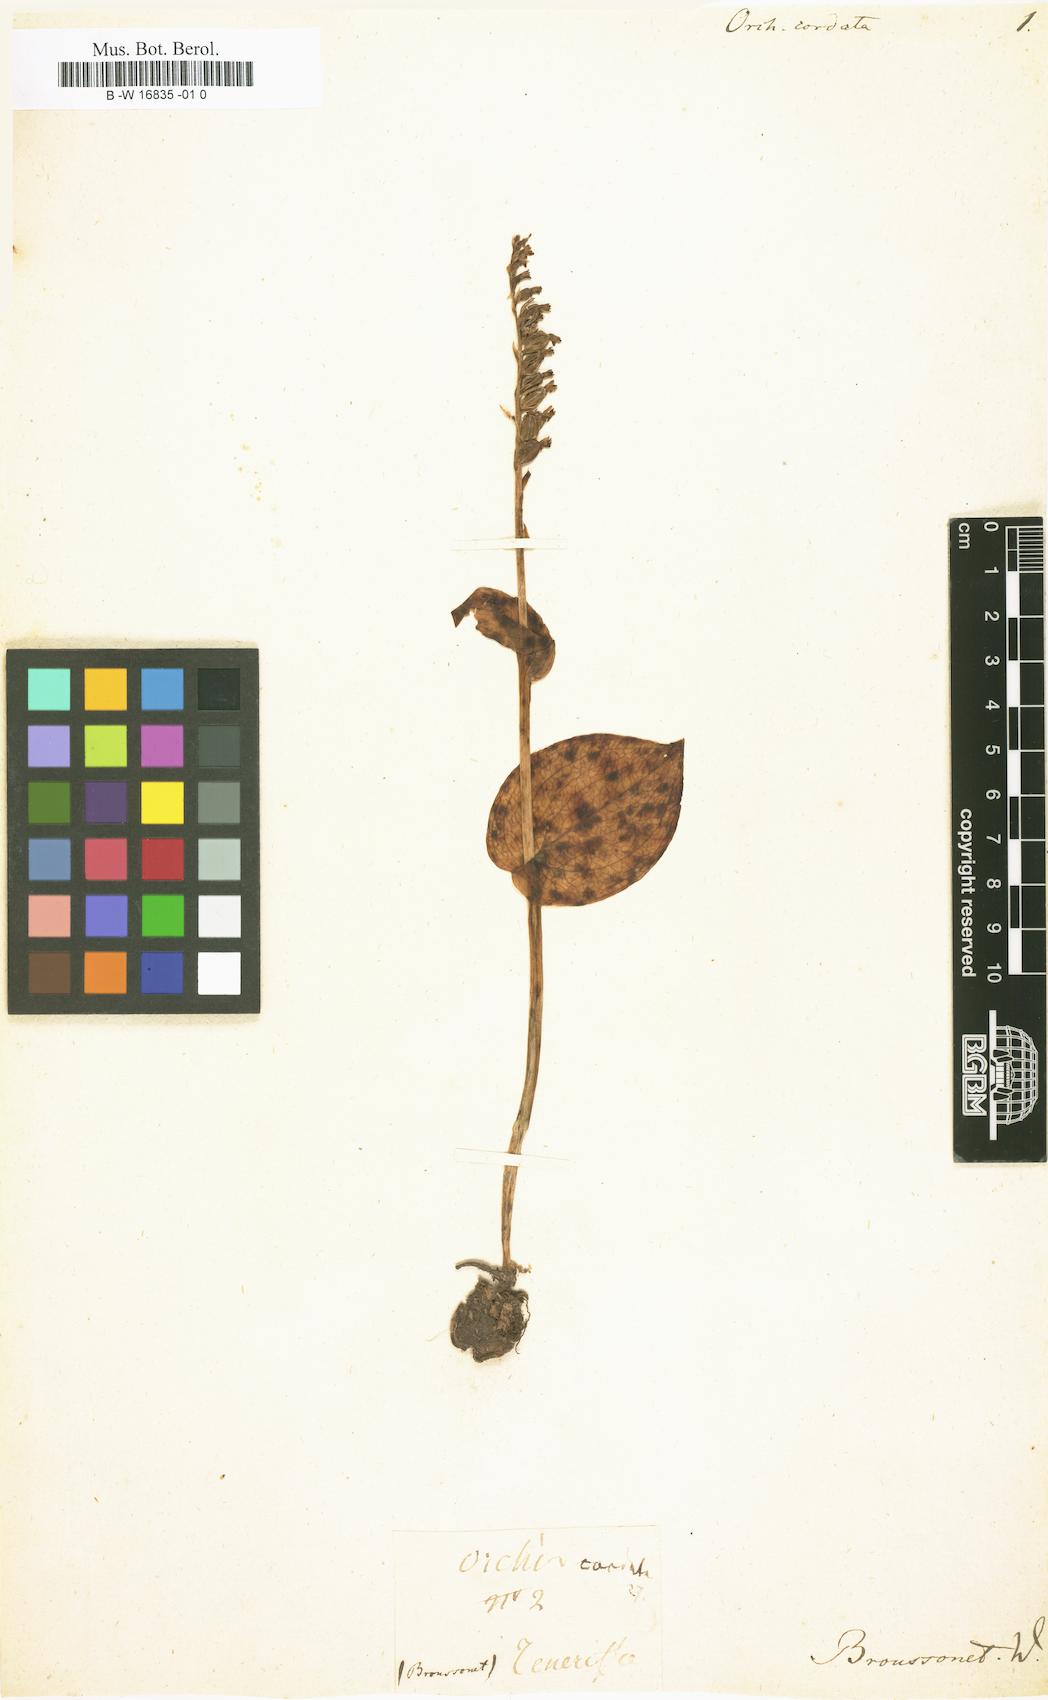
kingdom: Plantae
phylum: Tracheophyta
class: Liliopsida
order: Asparagales
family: Orchidaceae
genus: Gennaria
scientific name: Gennaria diphylla
